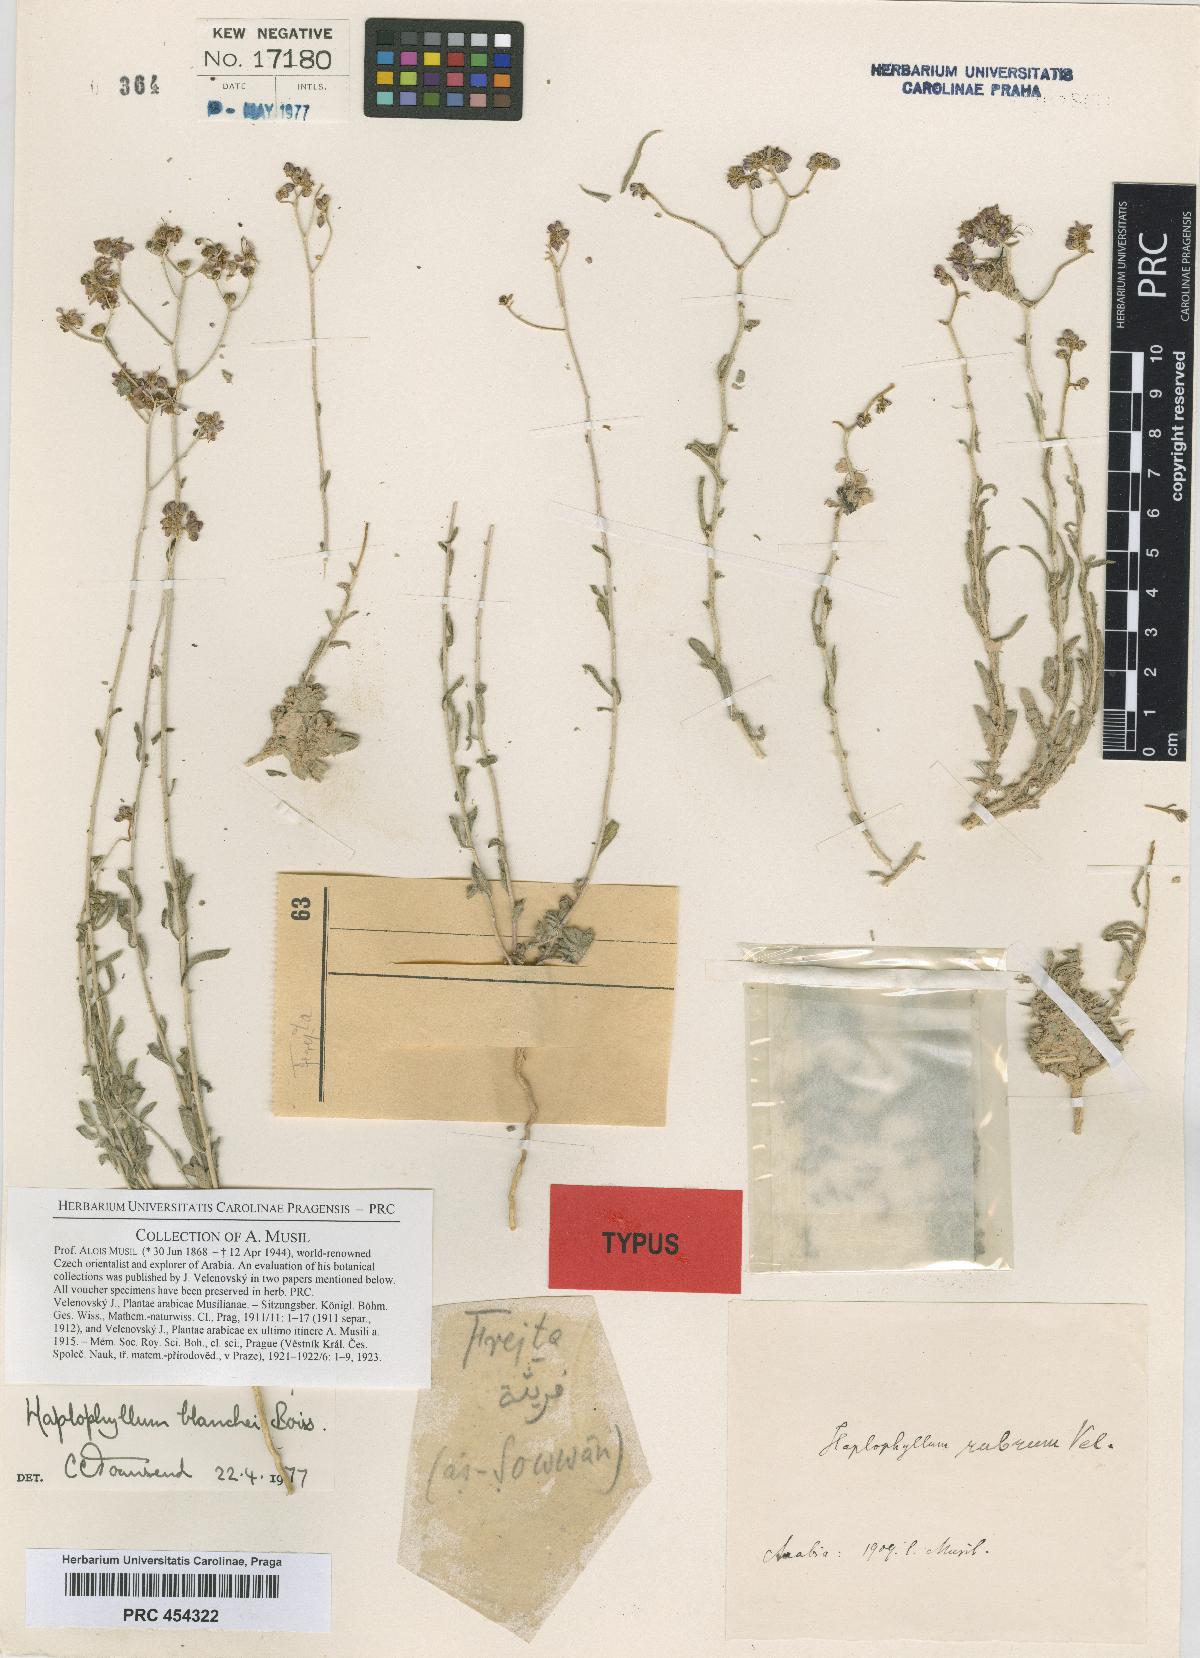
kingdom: Plantae
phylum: Tracheophyta
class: Magnoliopsida
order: Sapindales
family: Rutaceae
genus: Haplophyllum
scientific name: Haplophyllum blanchei
